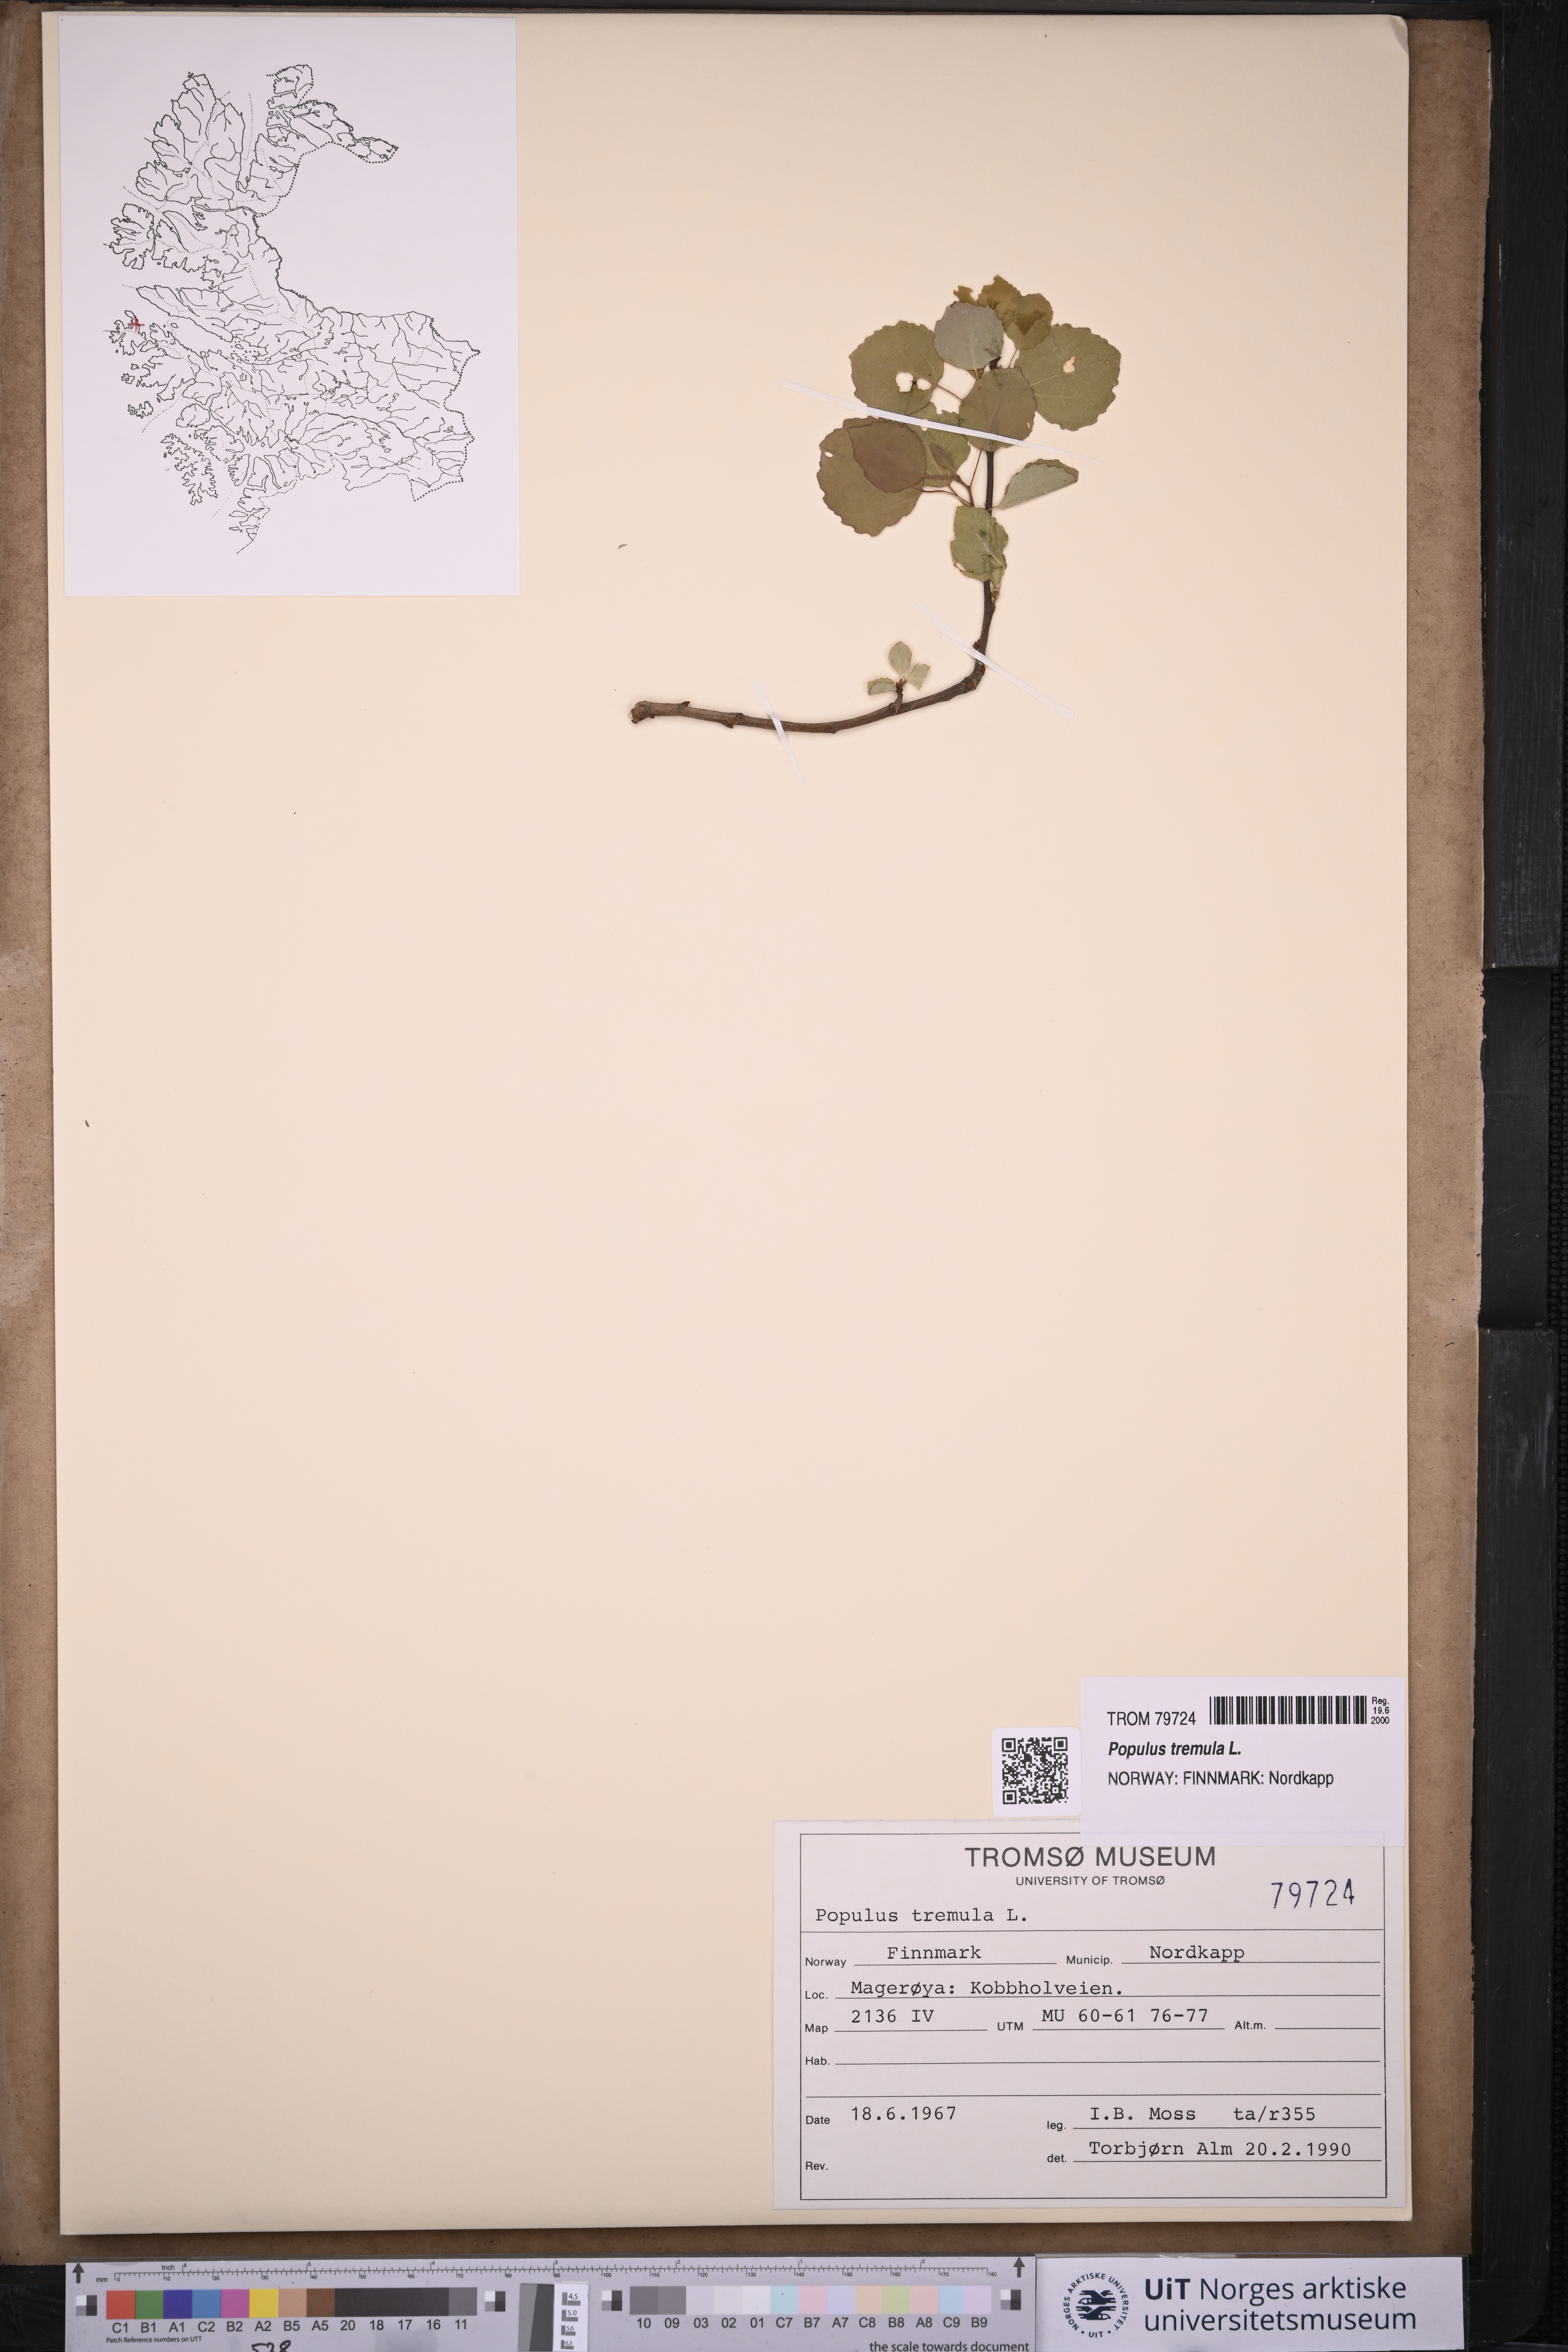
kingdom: Plantae
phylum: Tracheophyta
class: Magnoliopsida
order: Malpighiales
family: Salicaceae
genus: Populus
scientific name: Populus tremula
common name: European aspen
